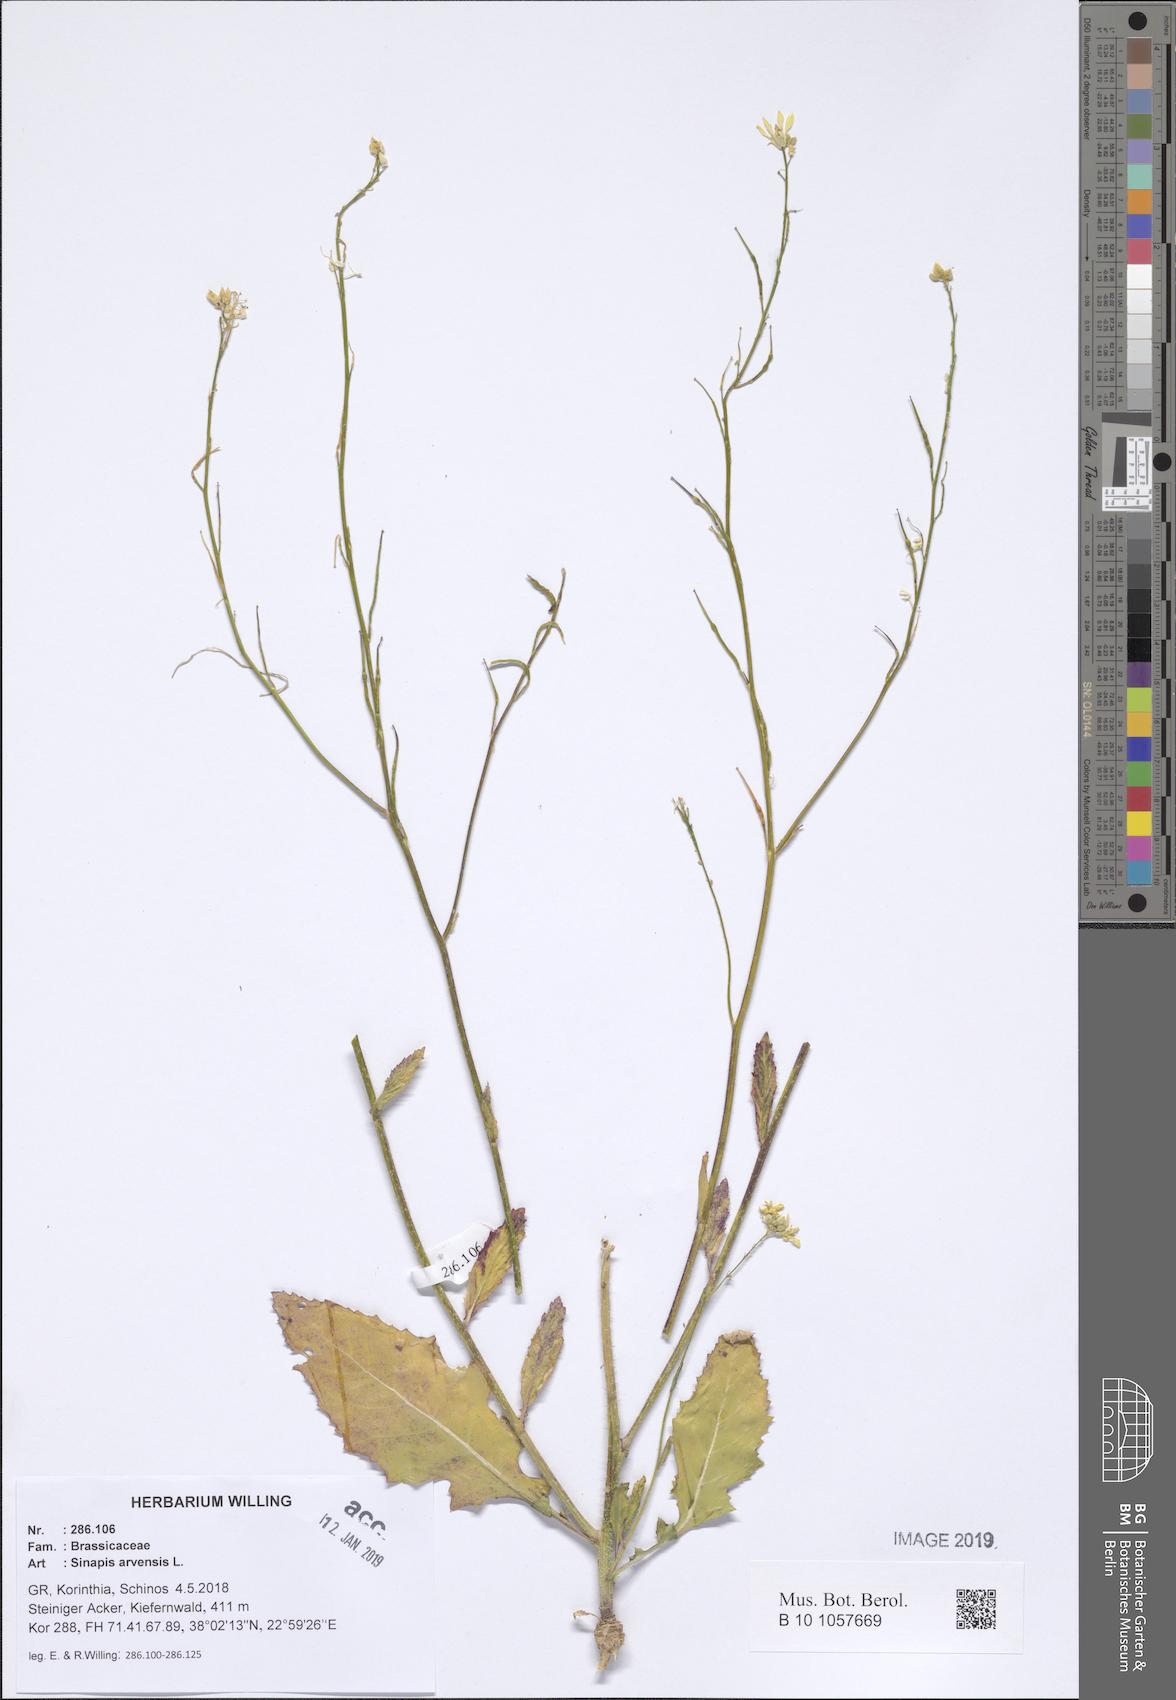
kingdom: Plantae
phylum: Tracheophyta
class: Magnoliopsida
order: Brassicales
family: Brassicaceae
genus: Sinapis
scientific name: Sinapis arvensis
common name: Charlock
